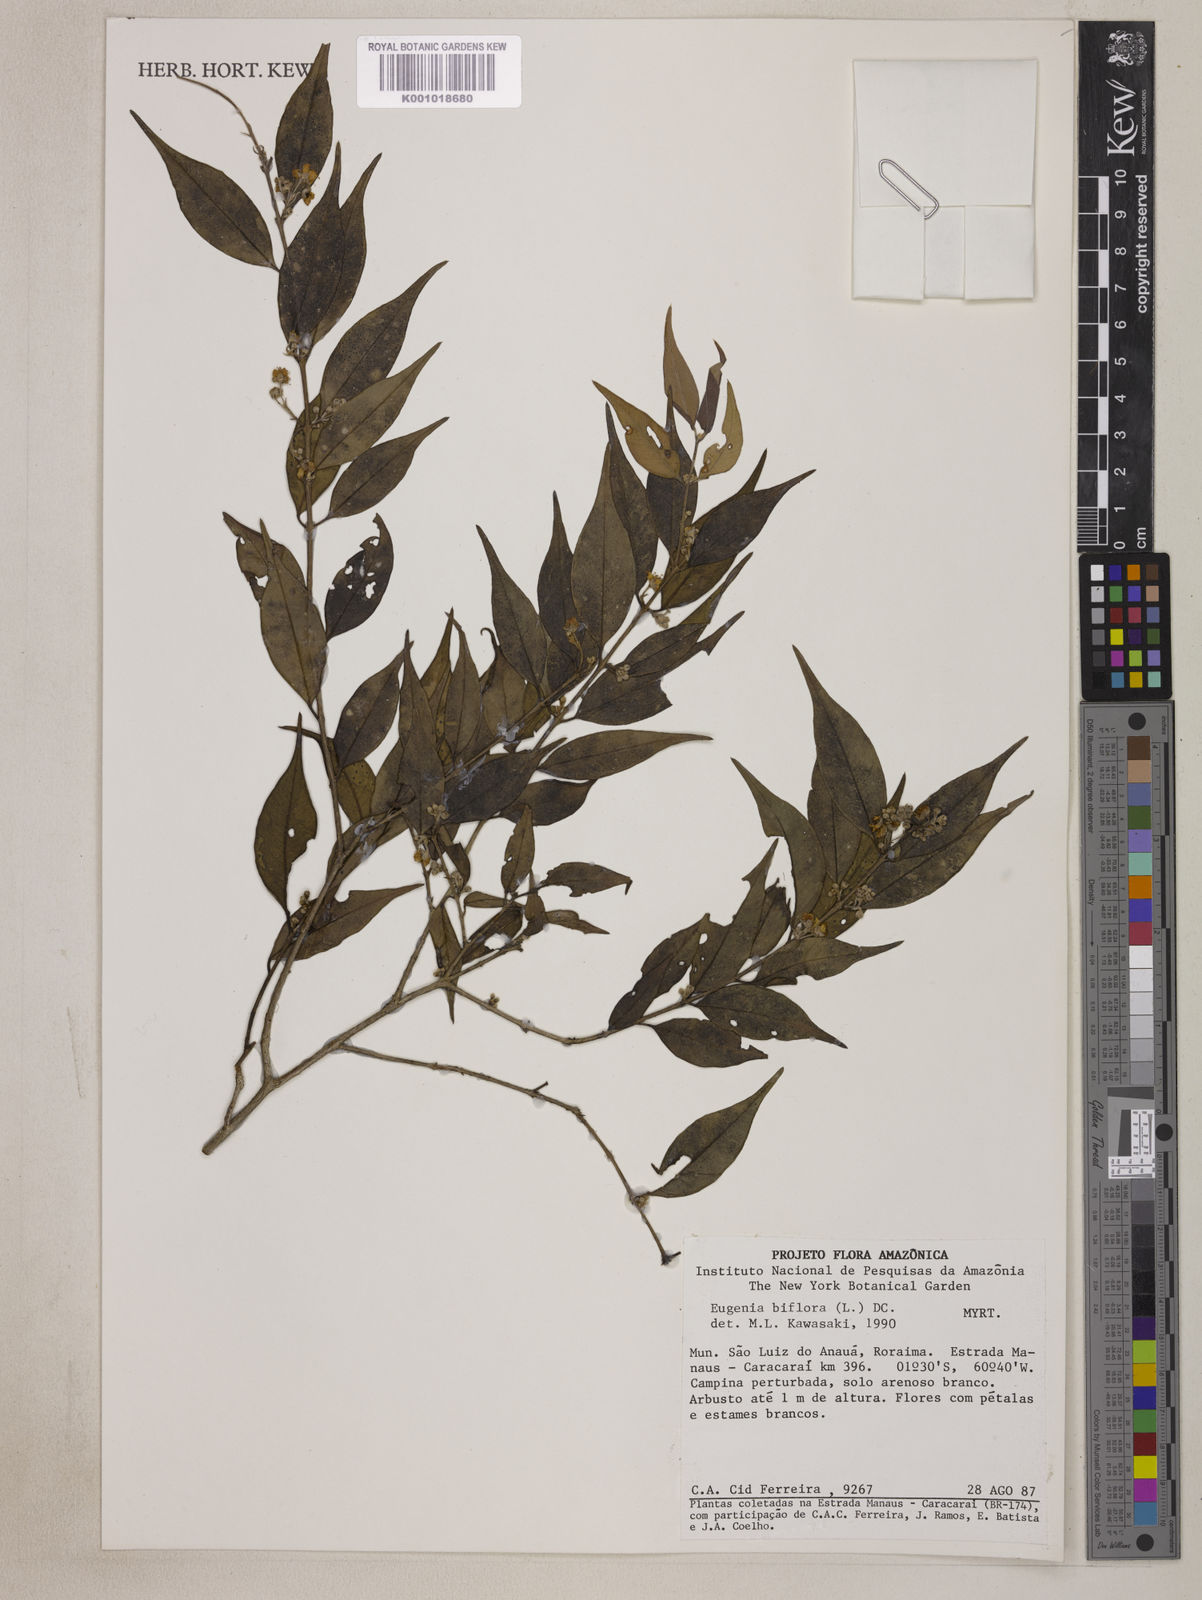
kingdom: Plantae
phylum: Tracheophyta
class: Magnoliopsida
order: Myrtales
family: Myrtaceae
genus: Eugenia
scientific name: Eugenia biflora
